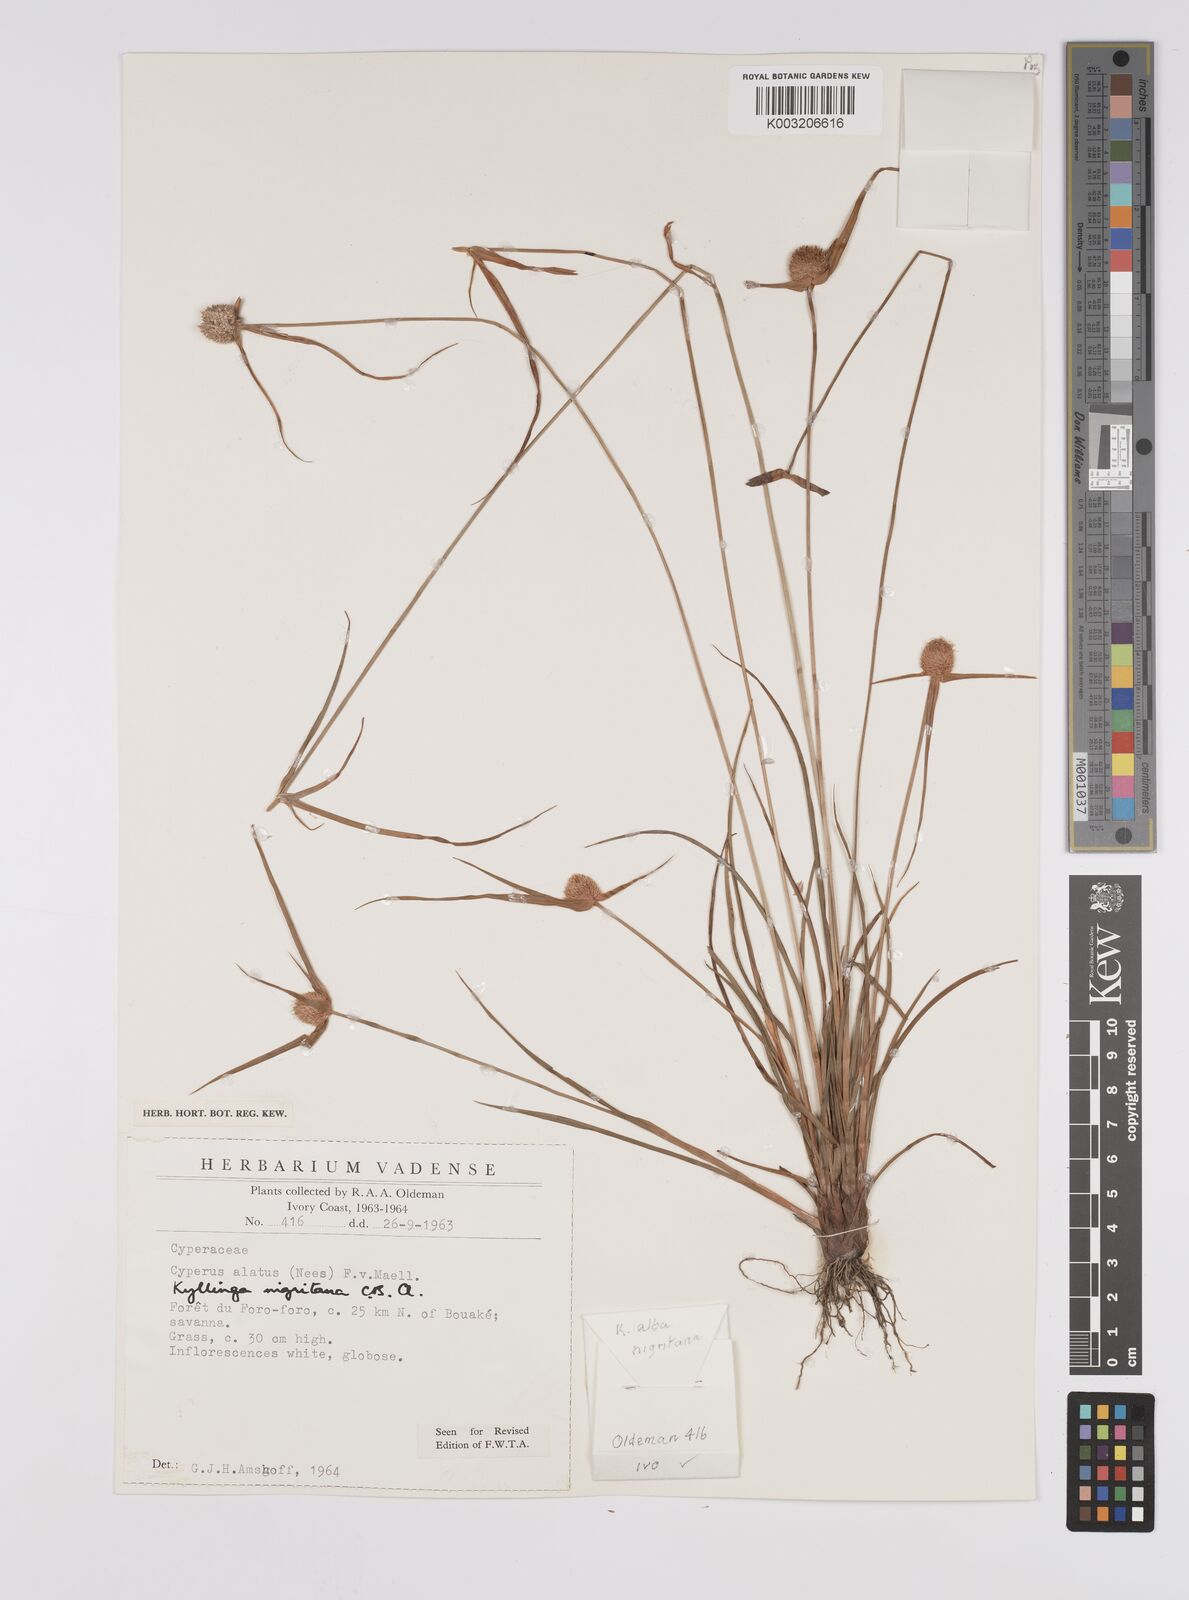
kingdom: Plantae
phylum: Tracheophyta
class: Liliopsida
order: Poales
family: Cyperaceae
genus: Cyperus
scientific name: Cyperus alatus
